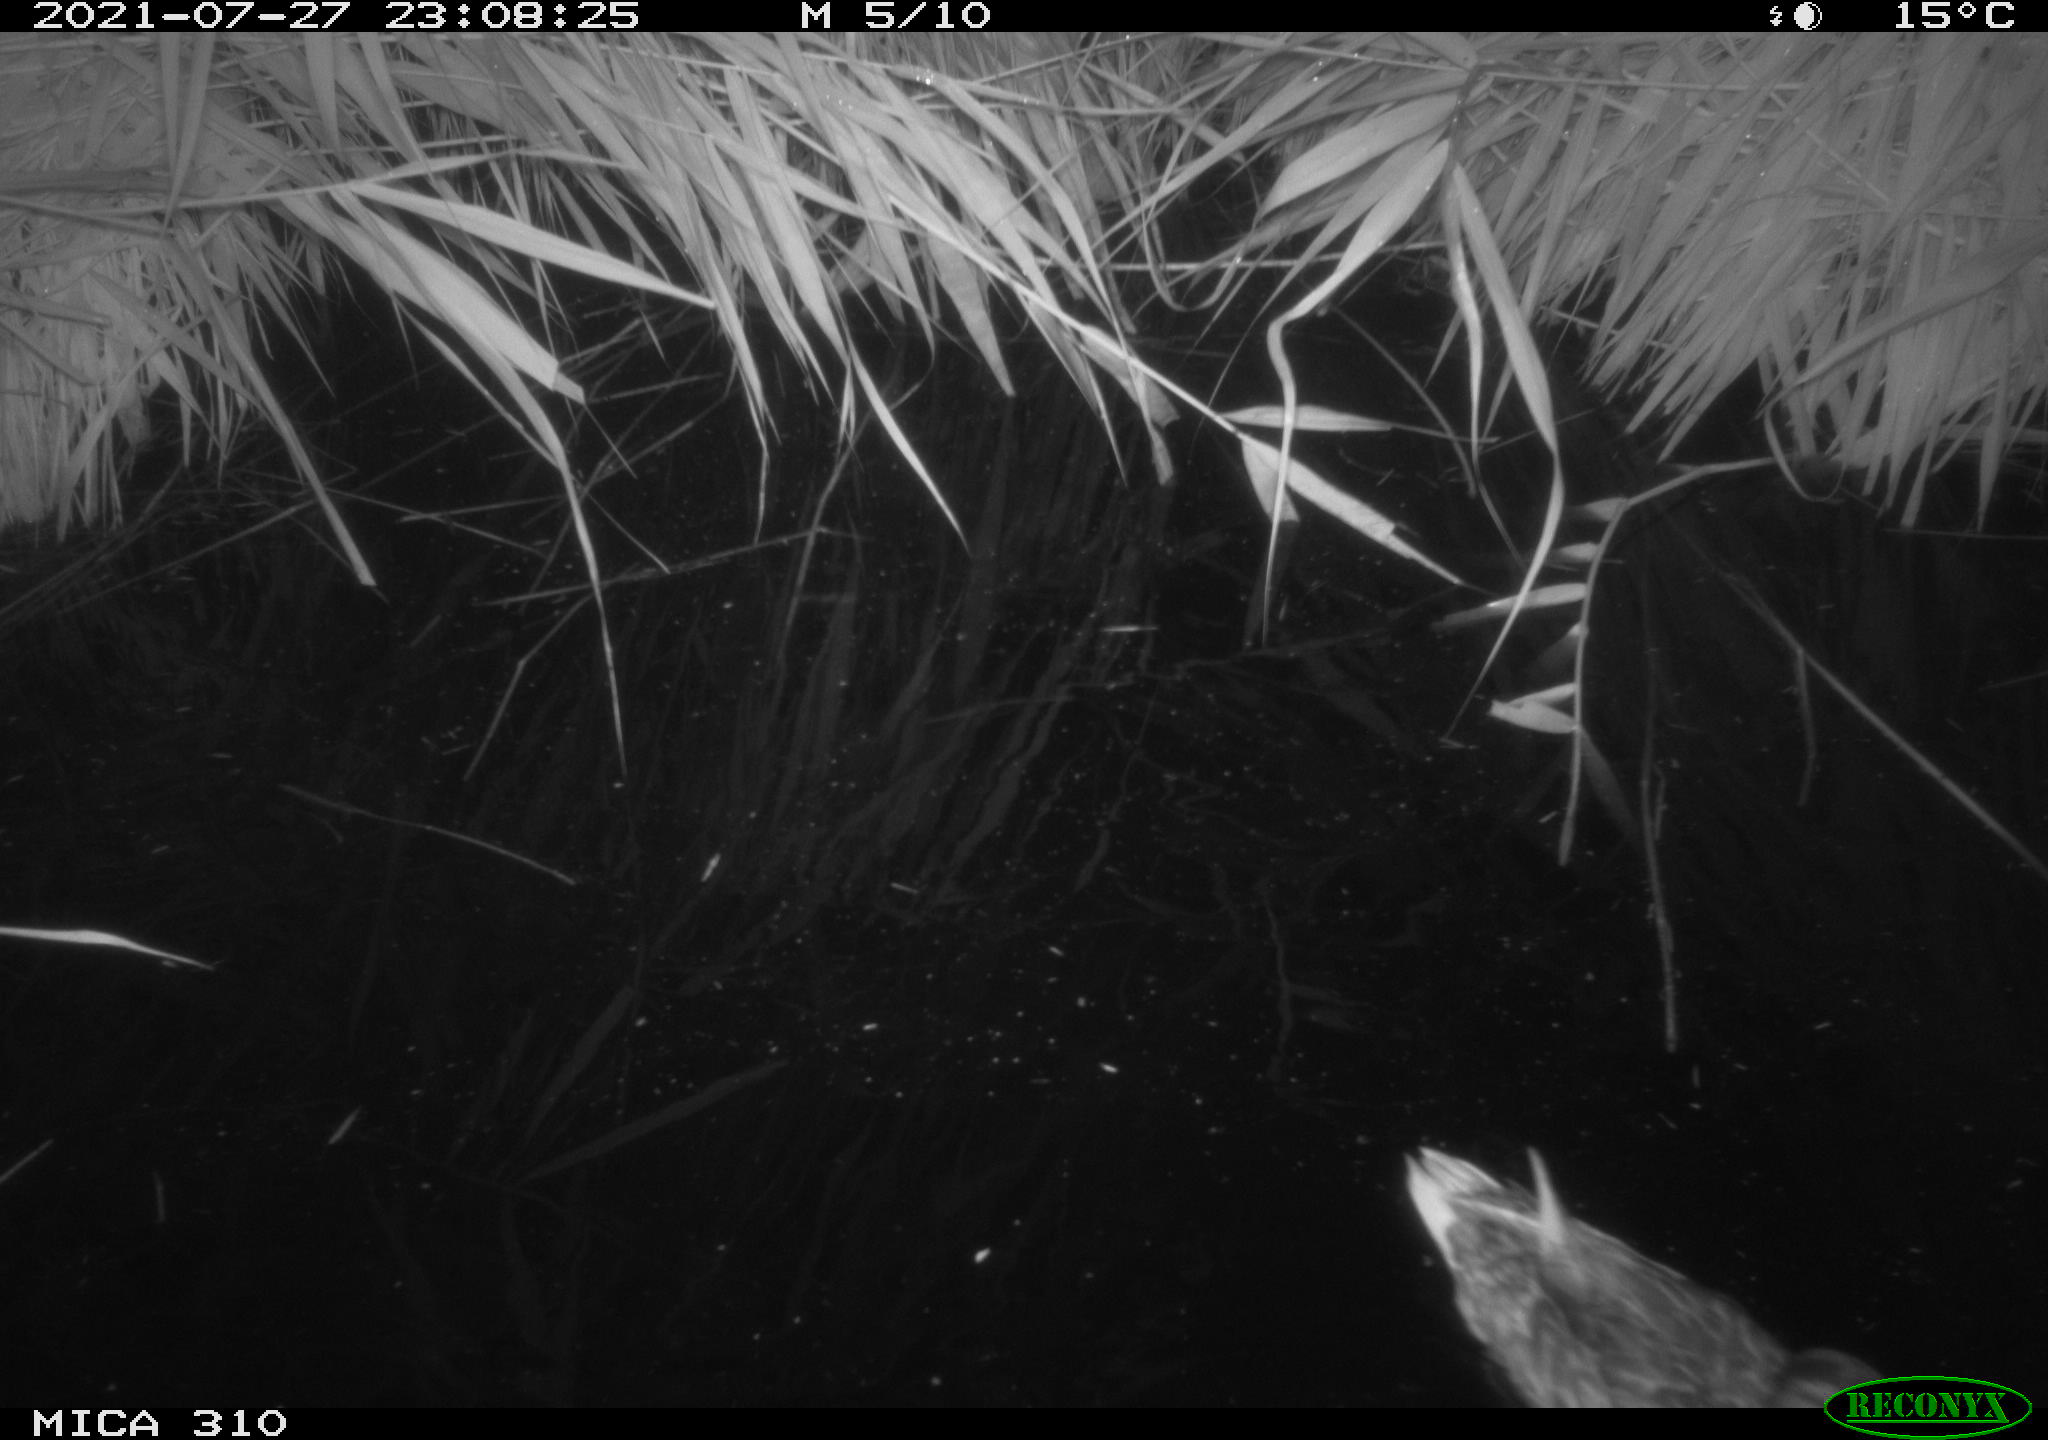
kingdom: Animalia
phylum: Chordata
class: Aves
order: Anseriformes
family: Anatidae
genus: Anas
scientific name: Anas platyrhynchos
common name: Mallard
